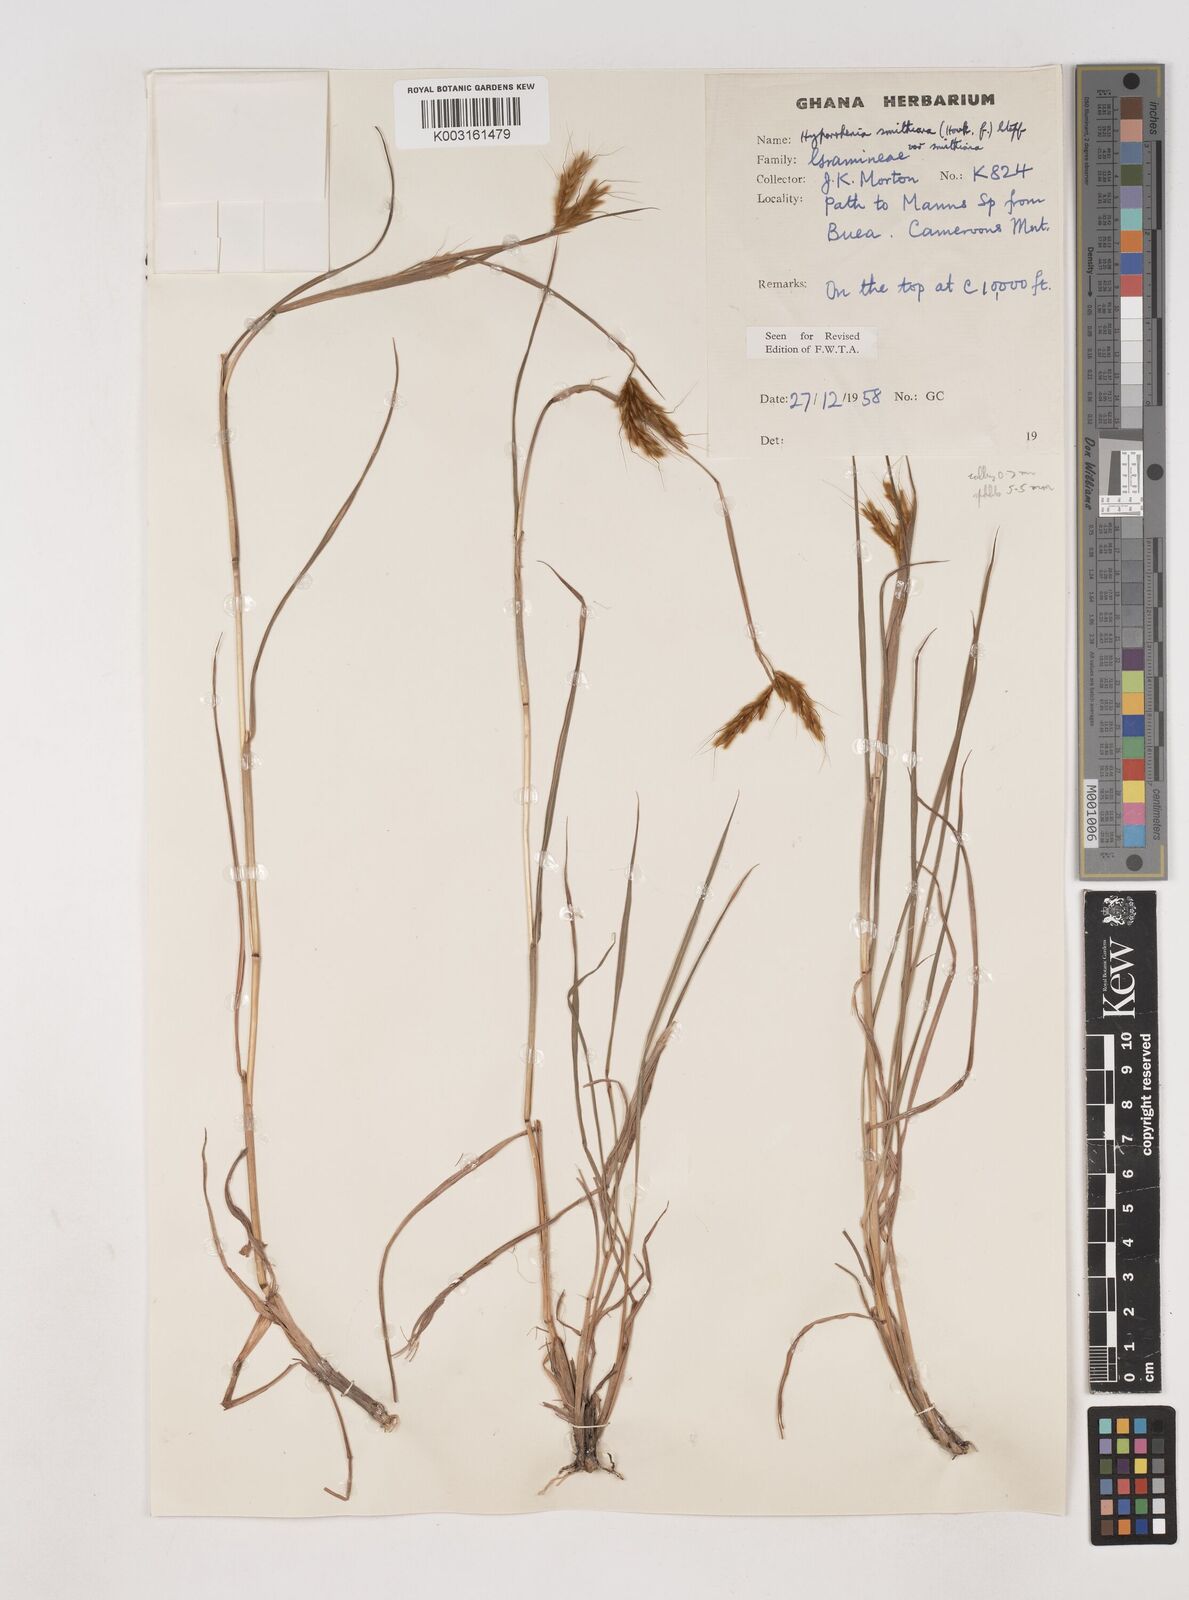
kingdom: Plantae
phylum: Tracheophyta
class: Liliopsida
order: Poales
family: Poaceae
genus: Hyparrhenia
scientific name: Hyparrhenia smithiana
